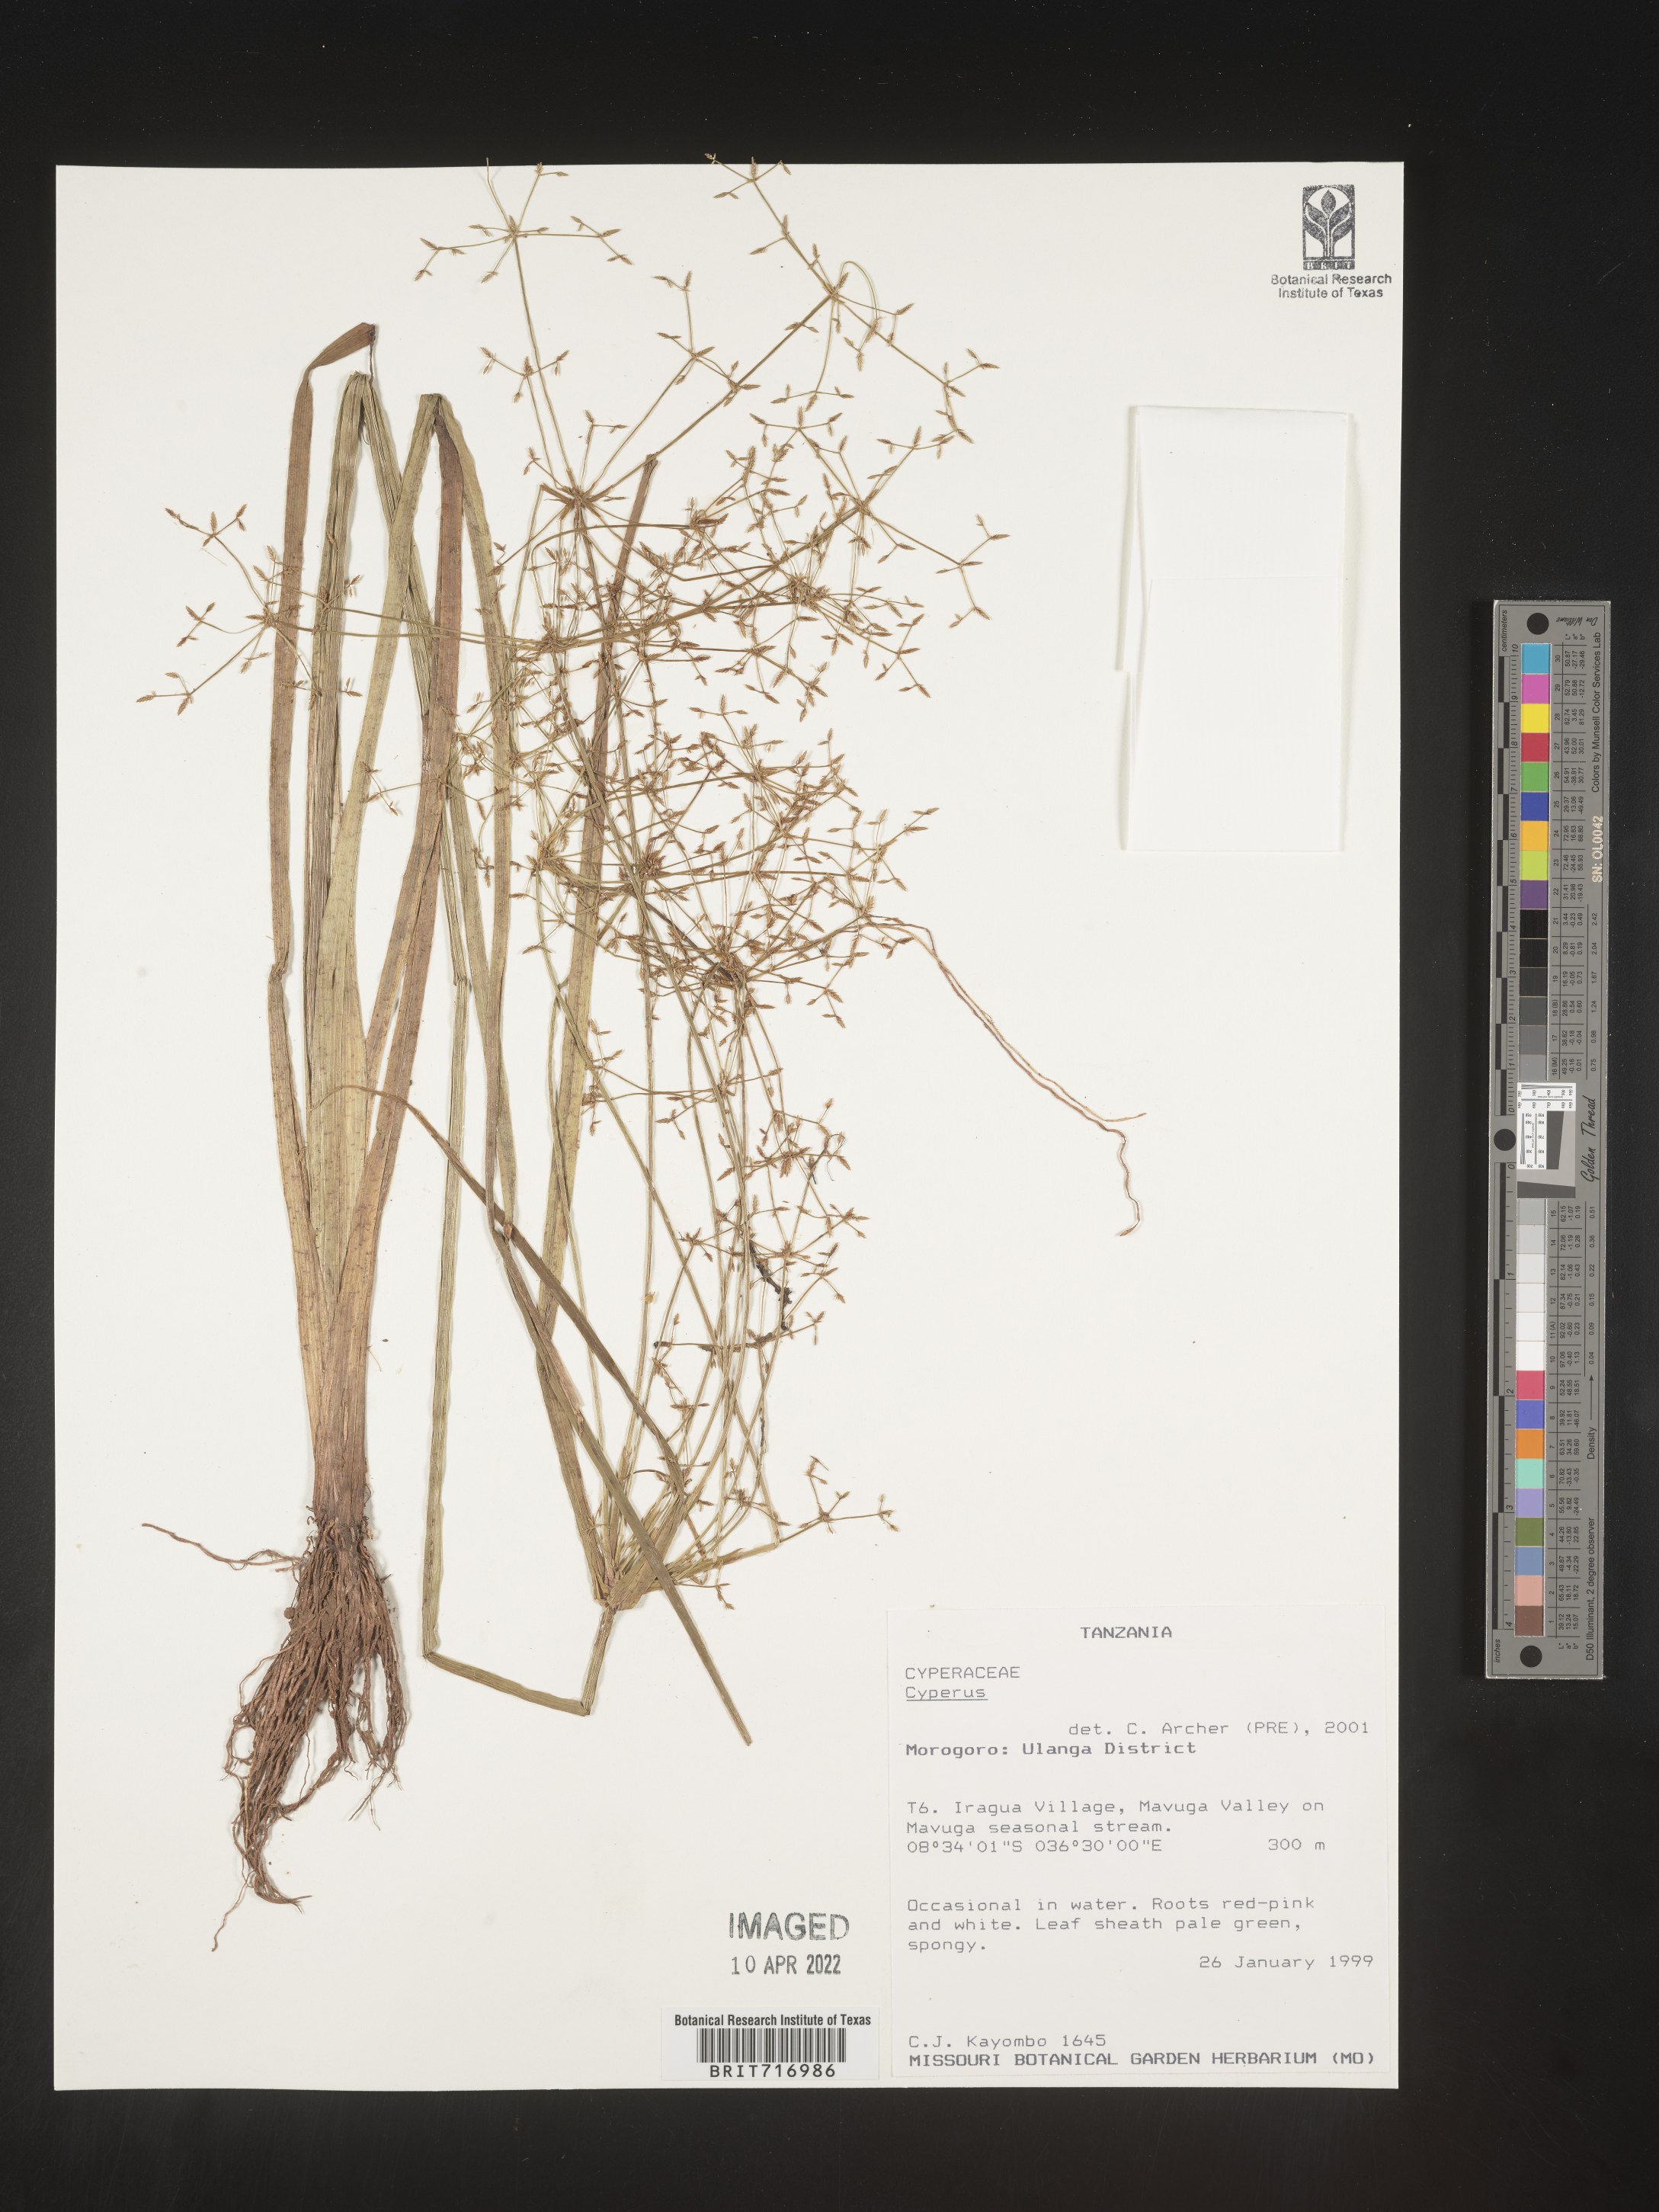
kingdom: Plantae
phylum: Tracheophyta
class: Liliopsida
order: Poales
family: Cyperaceae
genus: Cyperus
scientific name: Cyperus
